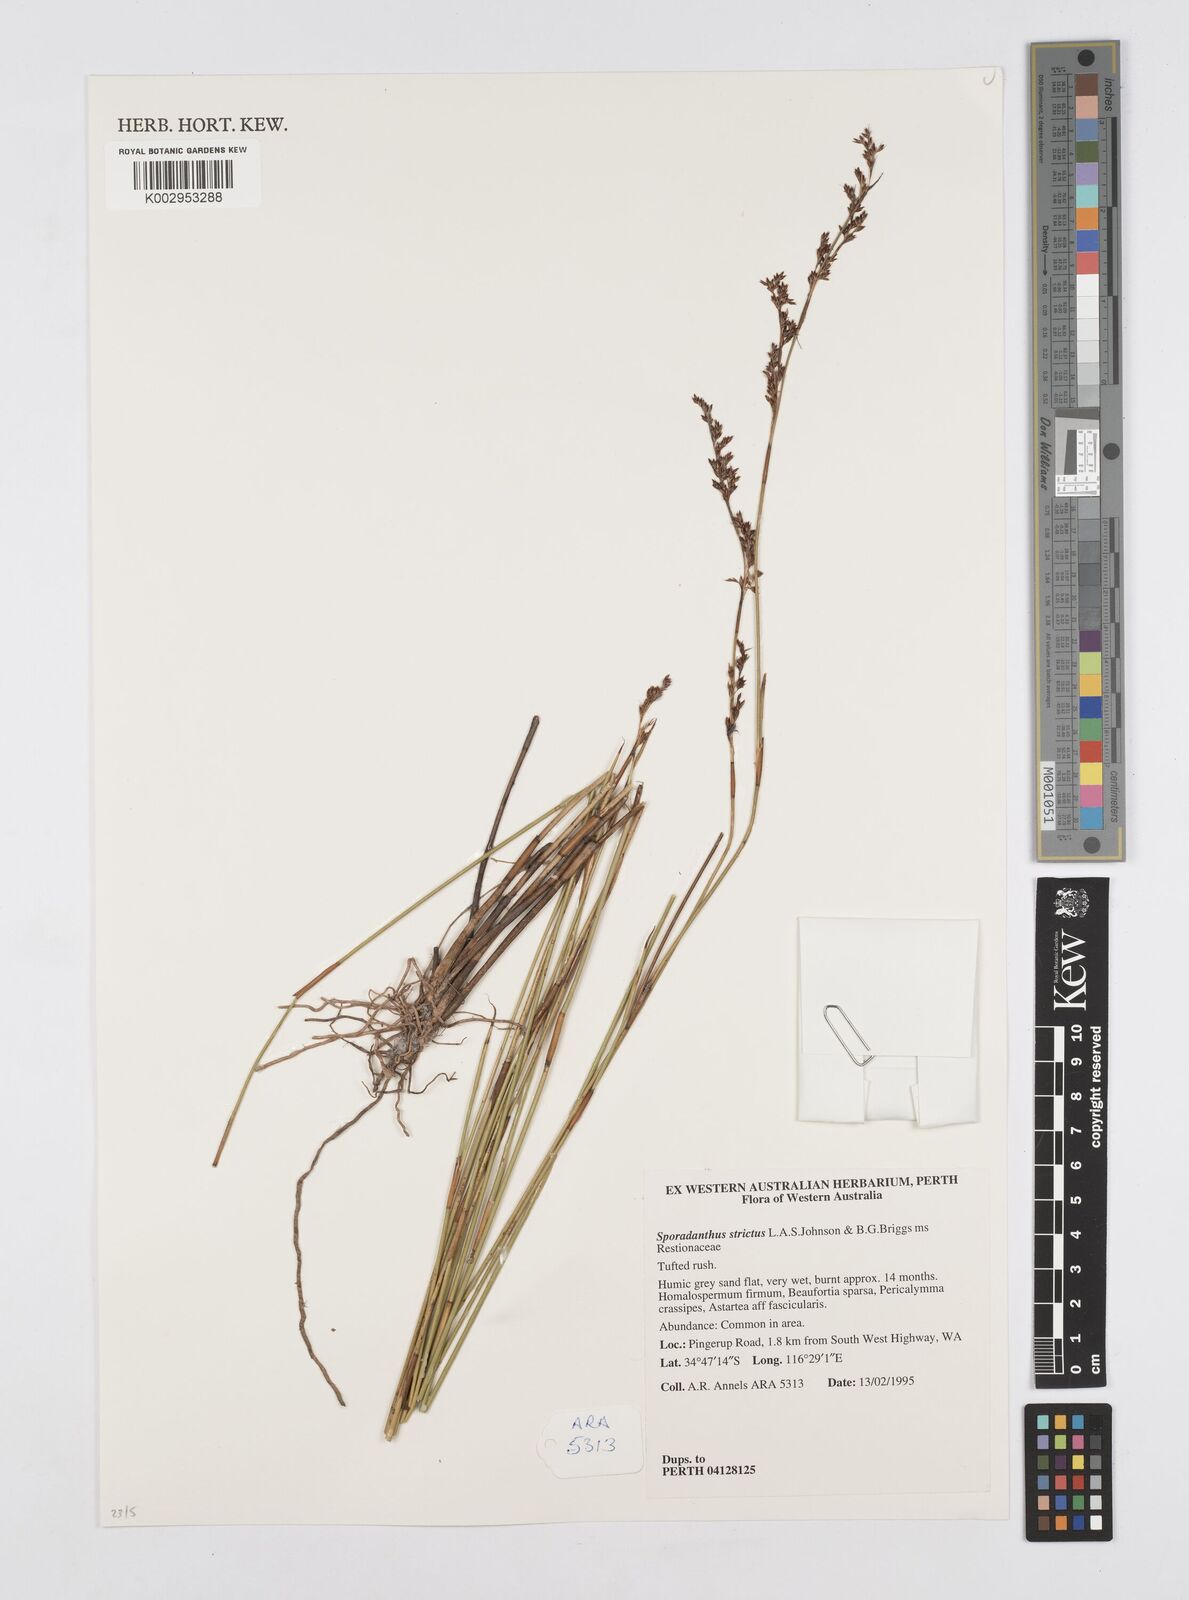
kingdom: Plantae
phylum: Tracheophyta
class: Liliopsida
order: Poales
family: Restionaceae
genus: Sporadanthus
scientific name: Sporadanthus strictus
